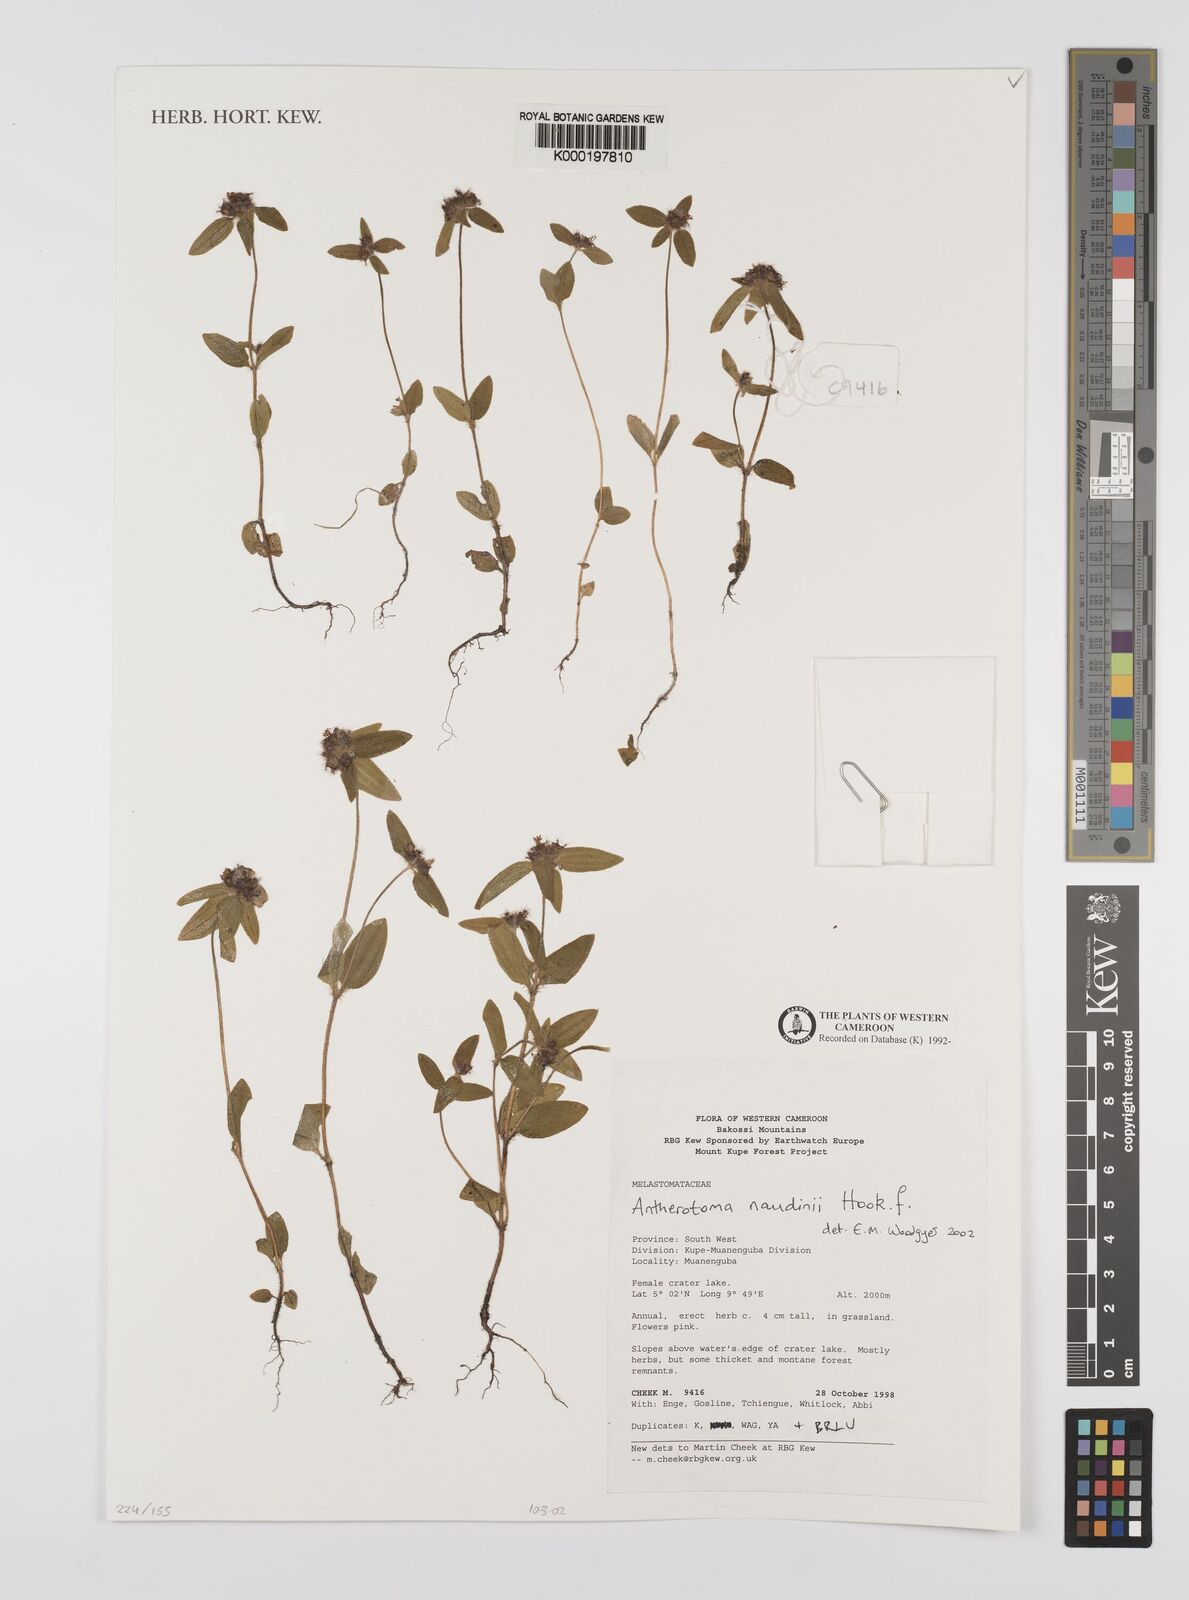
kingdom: Plantae
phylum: Tracheophyta
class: Magnoliopsida
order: Myrtales
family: Melastomataceae
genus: Antherotoma
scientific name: Antherotoma naudinii
